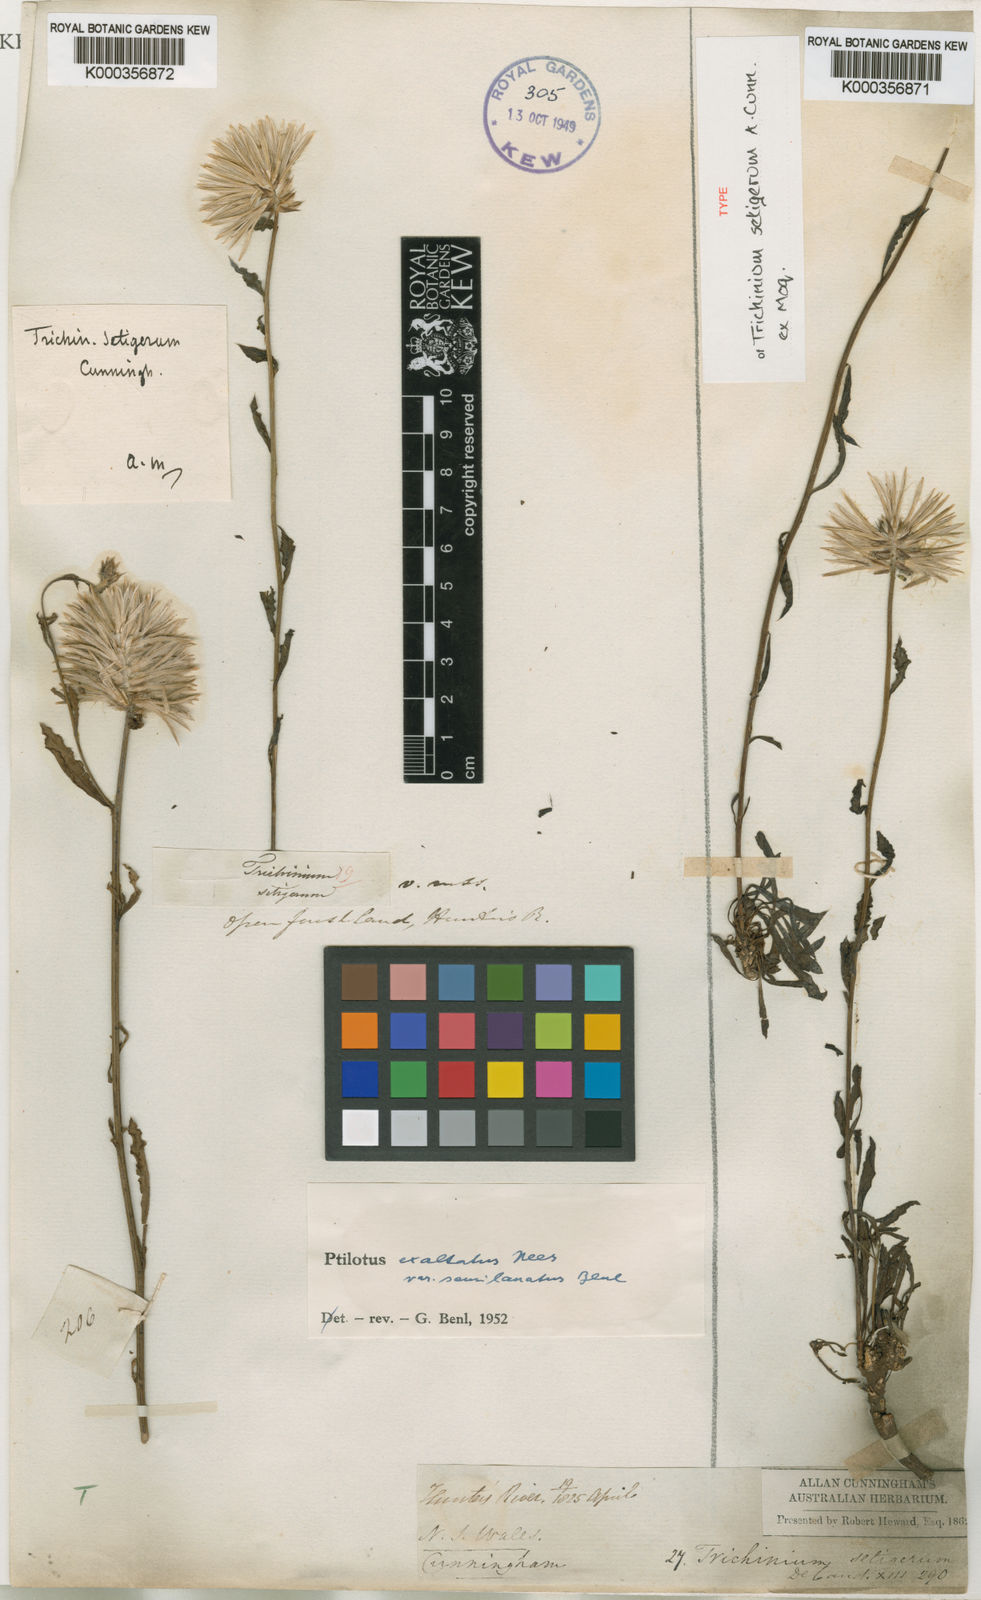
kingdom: Plantae
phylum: Tracheophyta
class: Magnoliopsida
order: Caryophyllales
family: Amaranthaceae
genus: Ptilotus
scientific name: Ptilotus semilanatus
